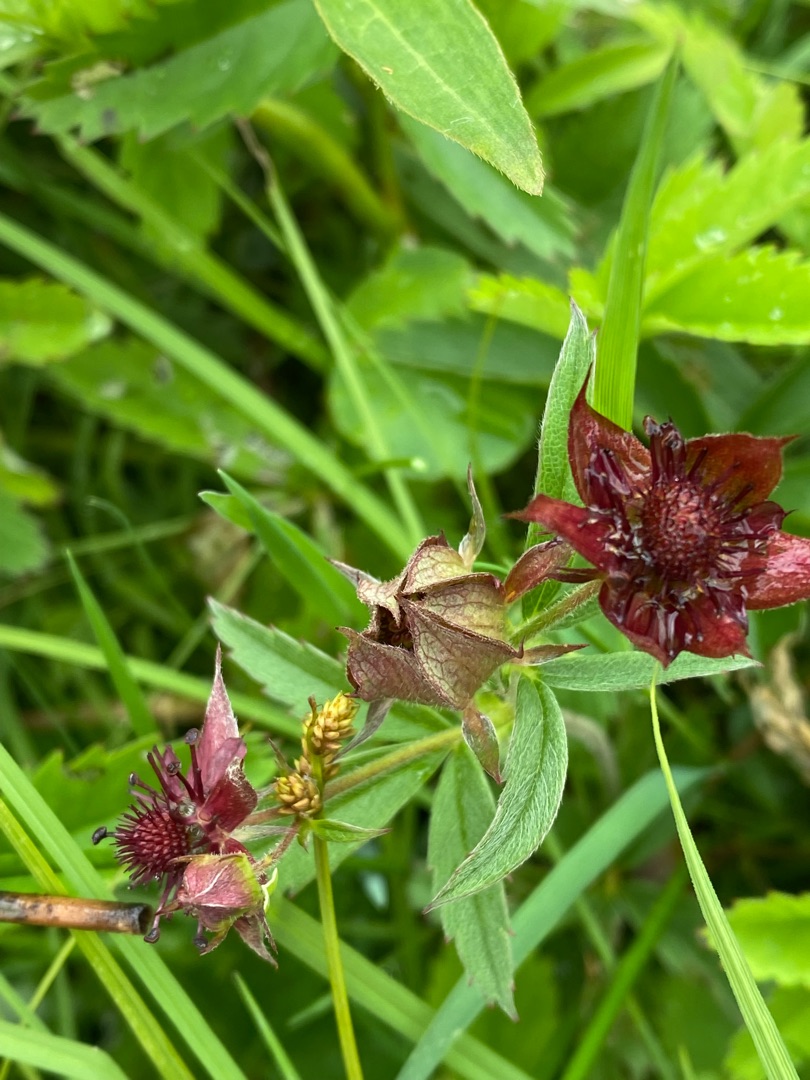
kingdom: Plantae
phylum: Tracheophyta
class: Magnoliopsida
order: Rosales
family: Rosaceae
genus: Comarum
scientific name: Comarum palustre
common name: Kragefod
